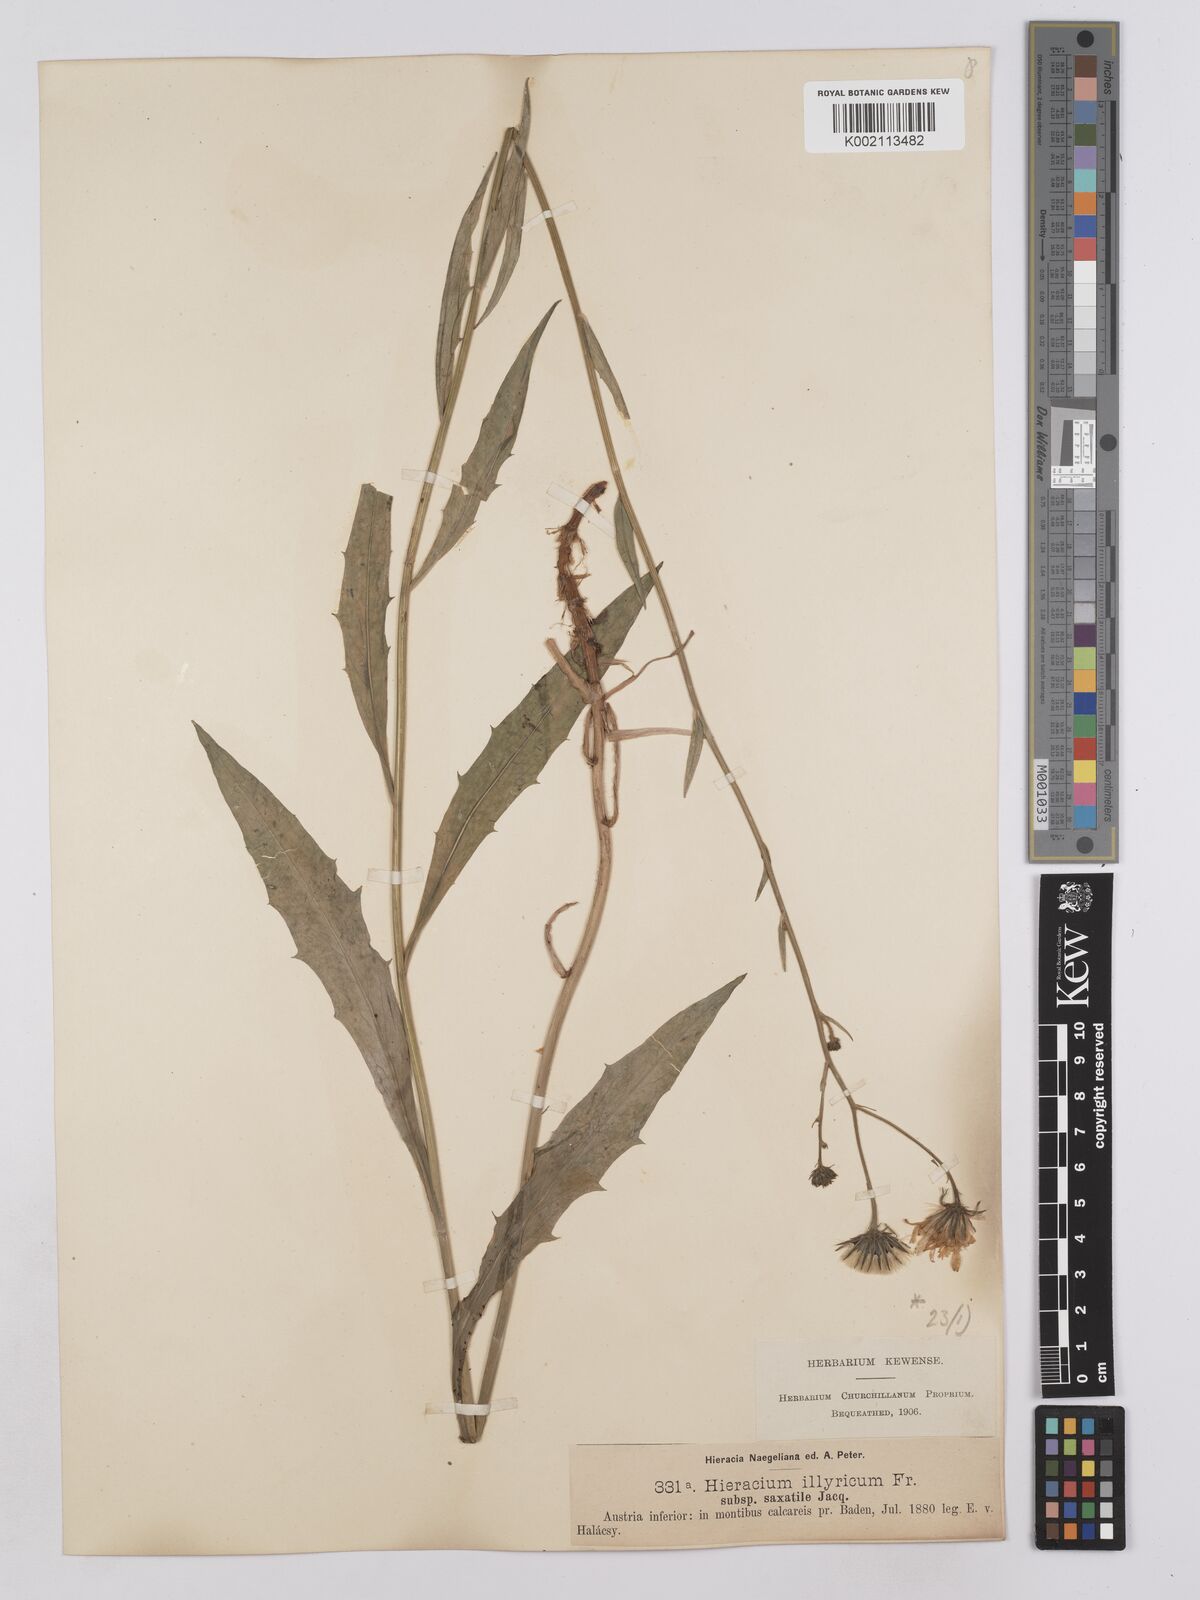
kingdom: Plantae
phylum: Tracheophyta
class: Magnoliopsida
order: Asterales
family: Asteraceae
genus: Hieracium
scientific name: Hieracium saxatile
